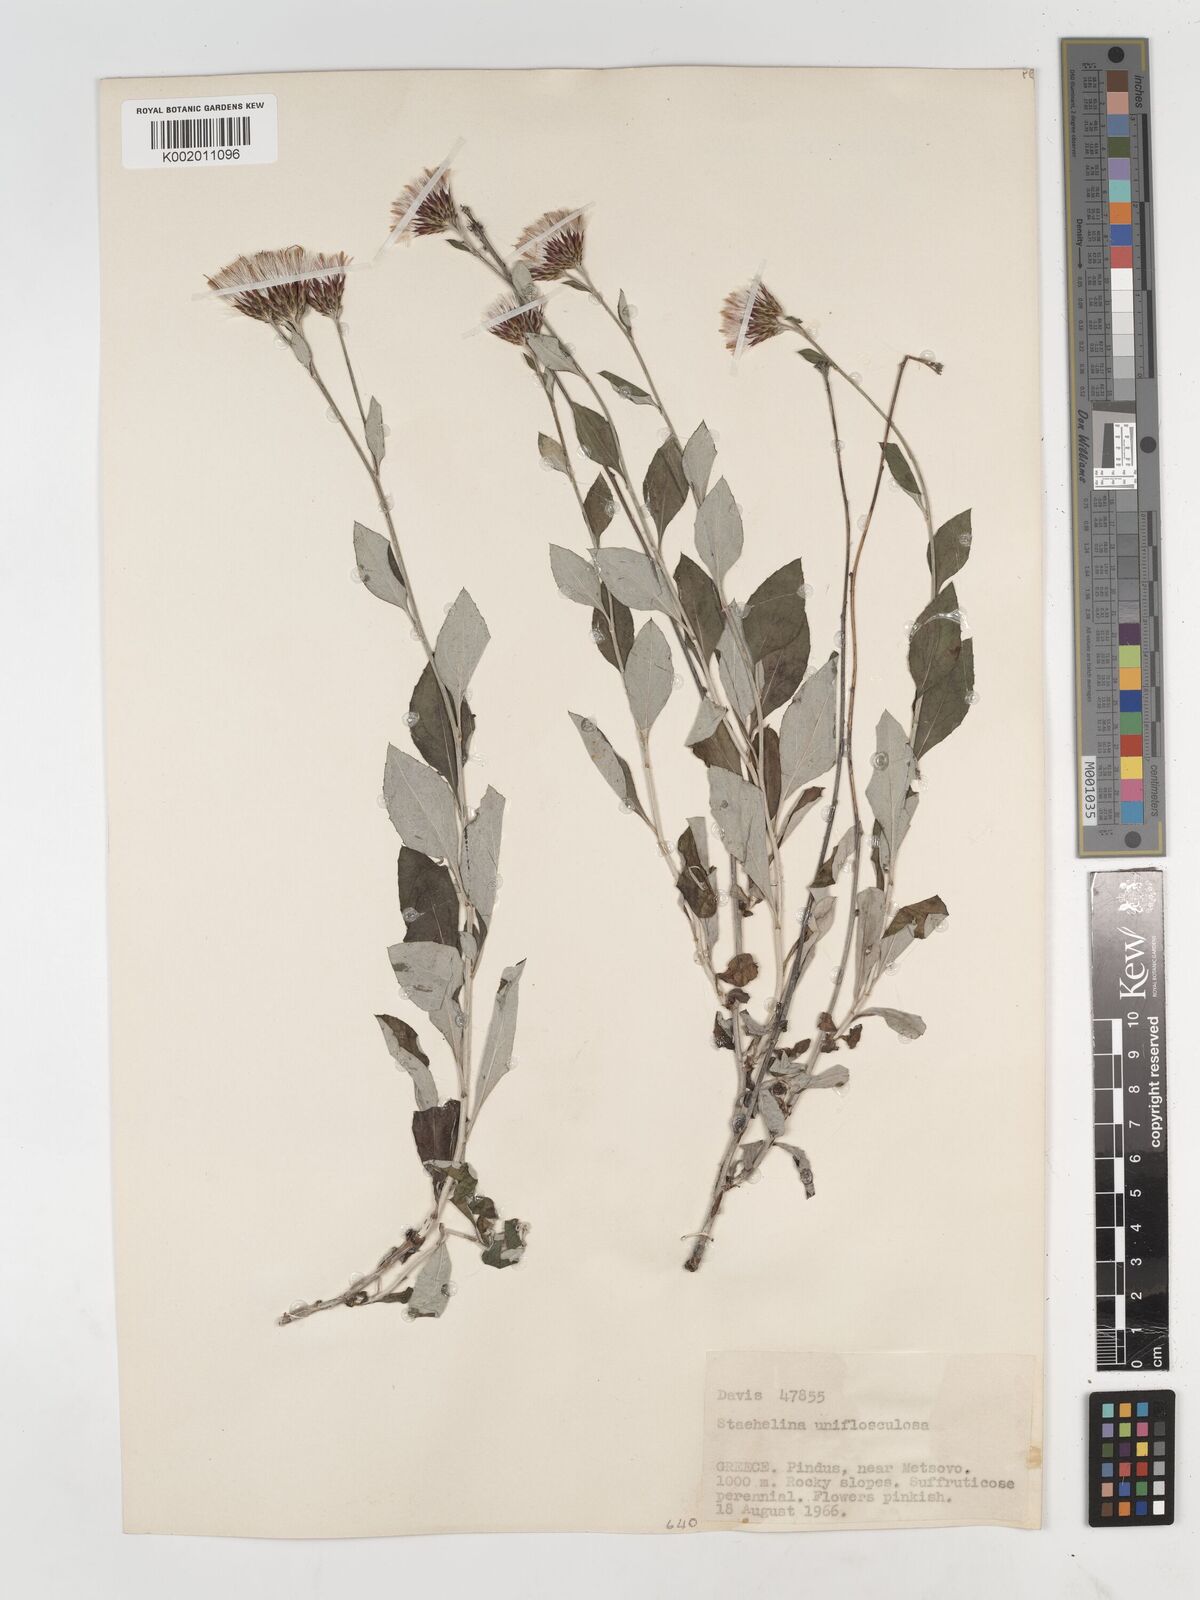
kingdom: Plantae
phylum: Tracheophyta
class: Magnoliopsida
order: Asterales
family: Asteraceae
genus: Staehelina
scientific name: Staehelina uniflosculosa
